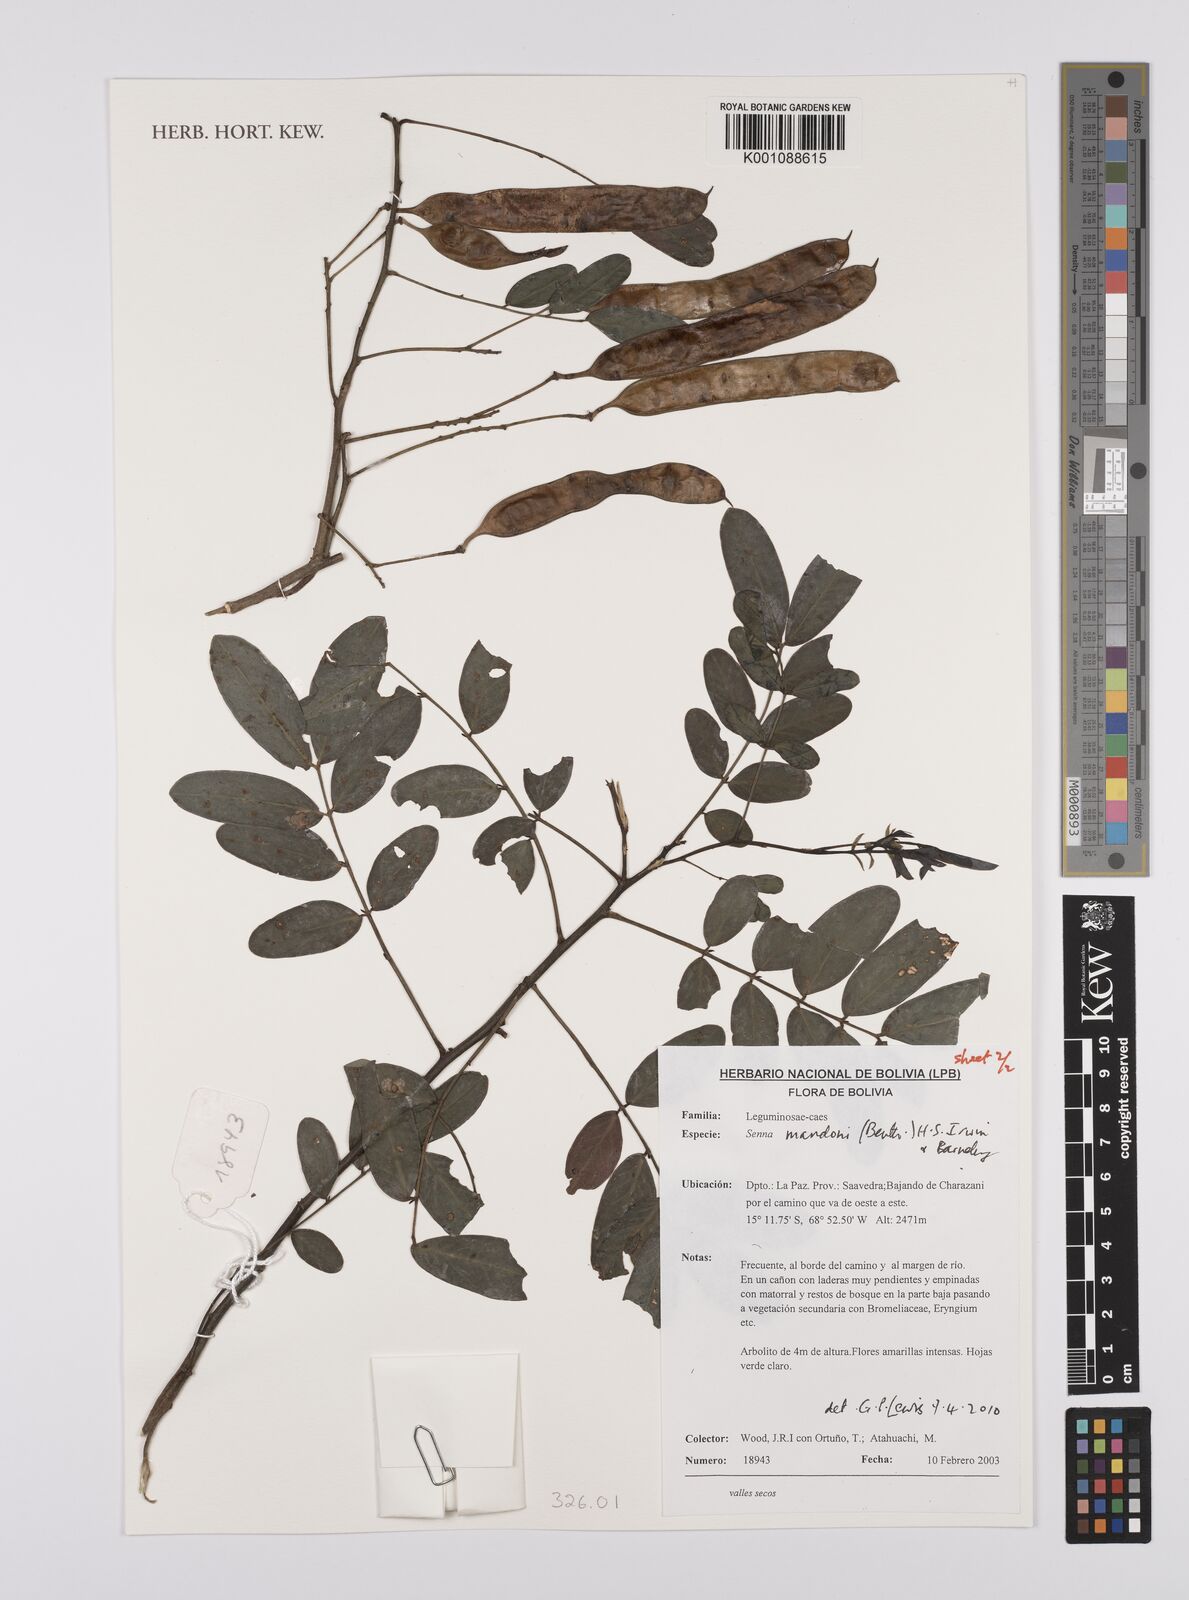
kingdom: Plantae
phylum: Tracheophyta
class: Magnoliopsida
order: Fabales
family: Fabaceae
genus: Senna
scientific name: Senna mandonii
